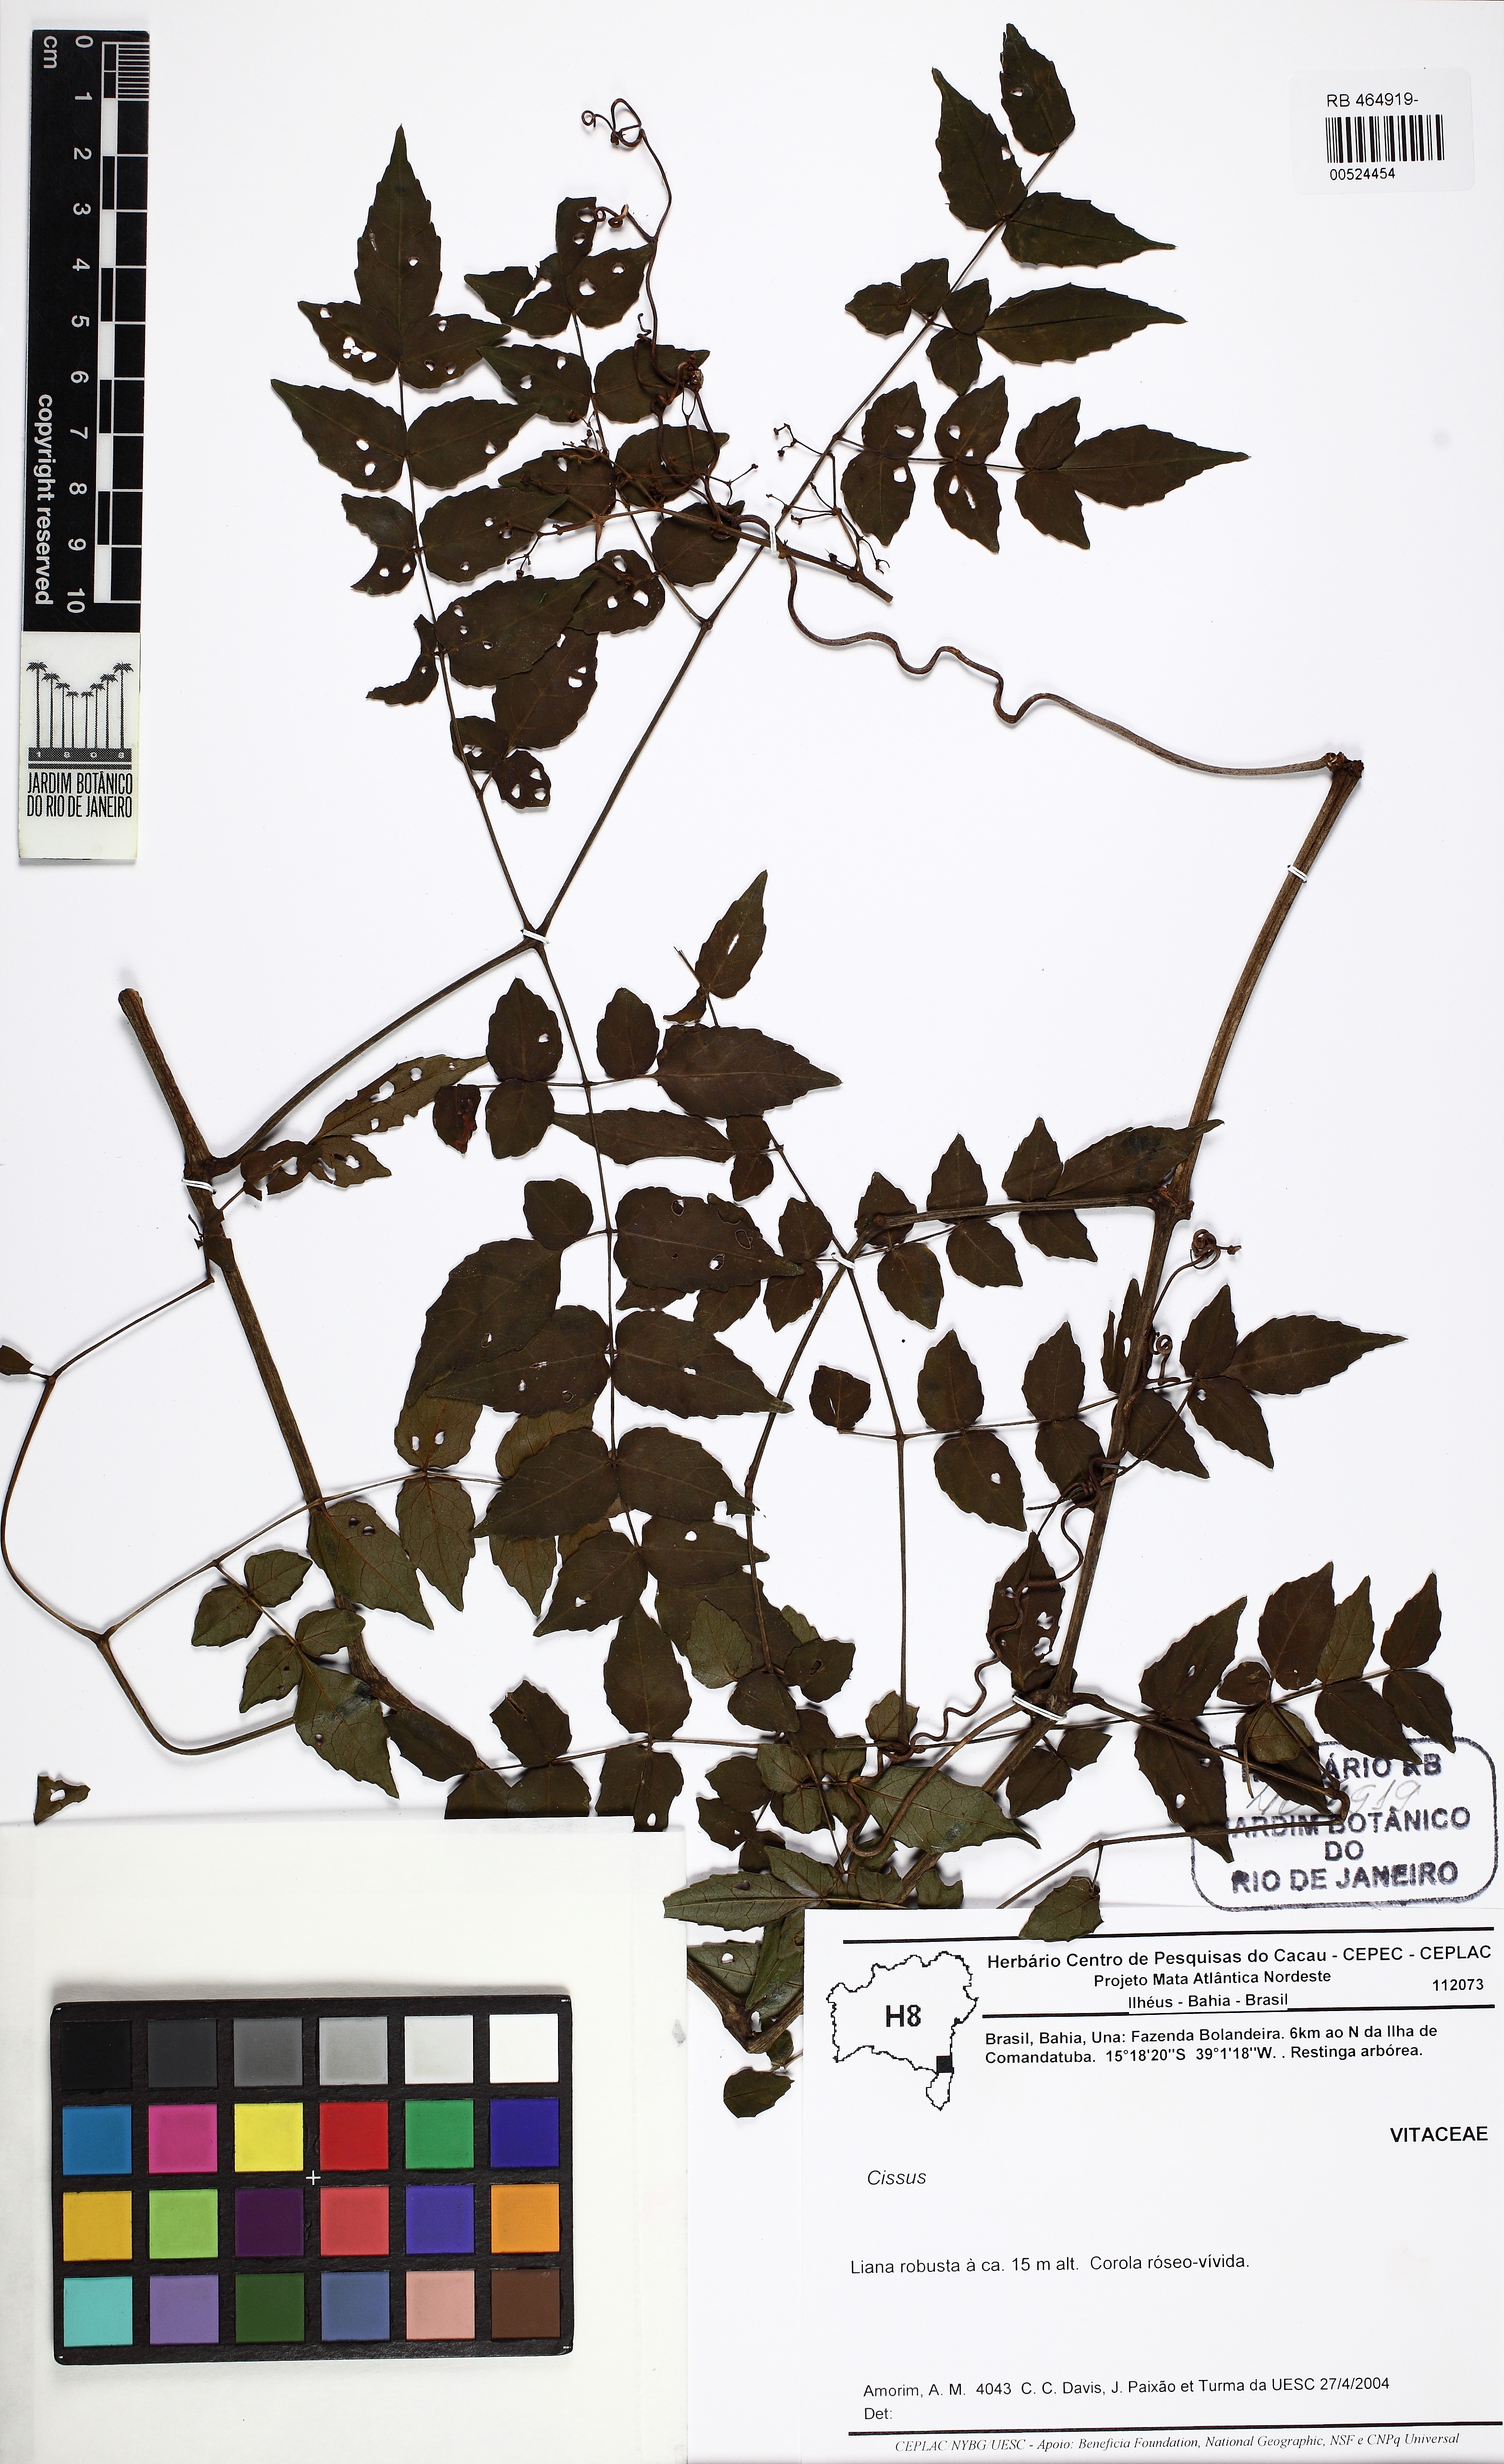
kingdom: Plantae
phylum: Tracheophyta
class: Magnoliopsida
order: Vitales
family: Vitaceae
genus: Cissus
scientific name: Cissus
